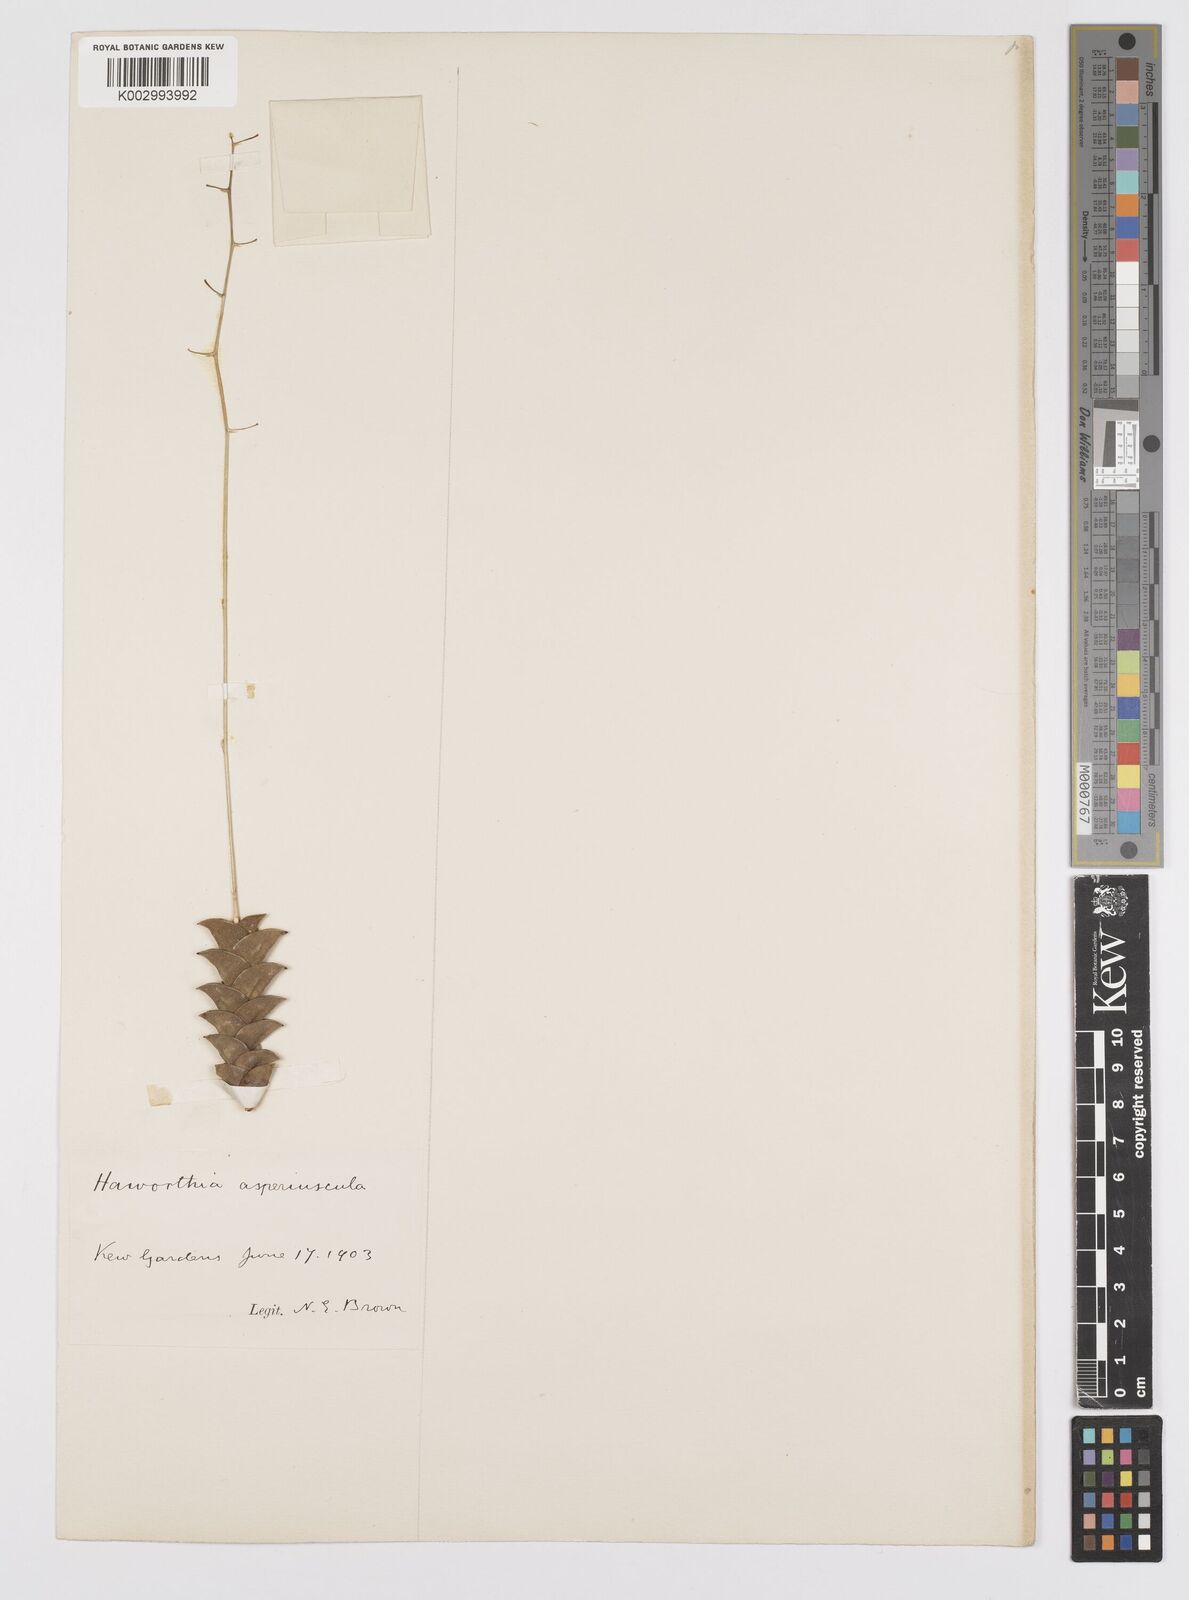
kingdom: Plantae
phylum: Tracheophyta
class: Liliopsida
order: Asparagales
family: Asphodelaceae
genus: Haworthiopsis
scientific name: Haworthiopsis viscosa
